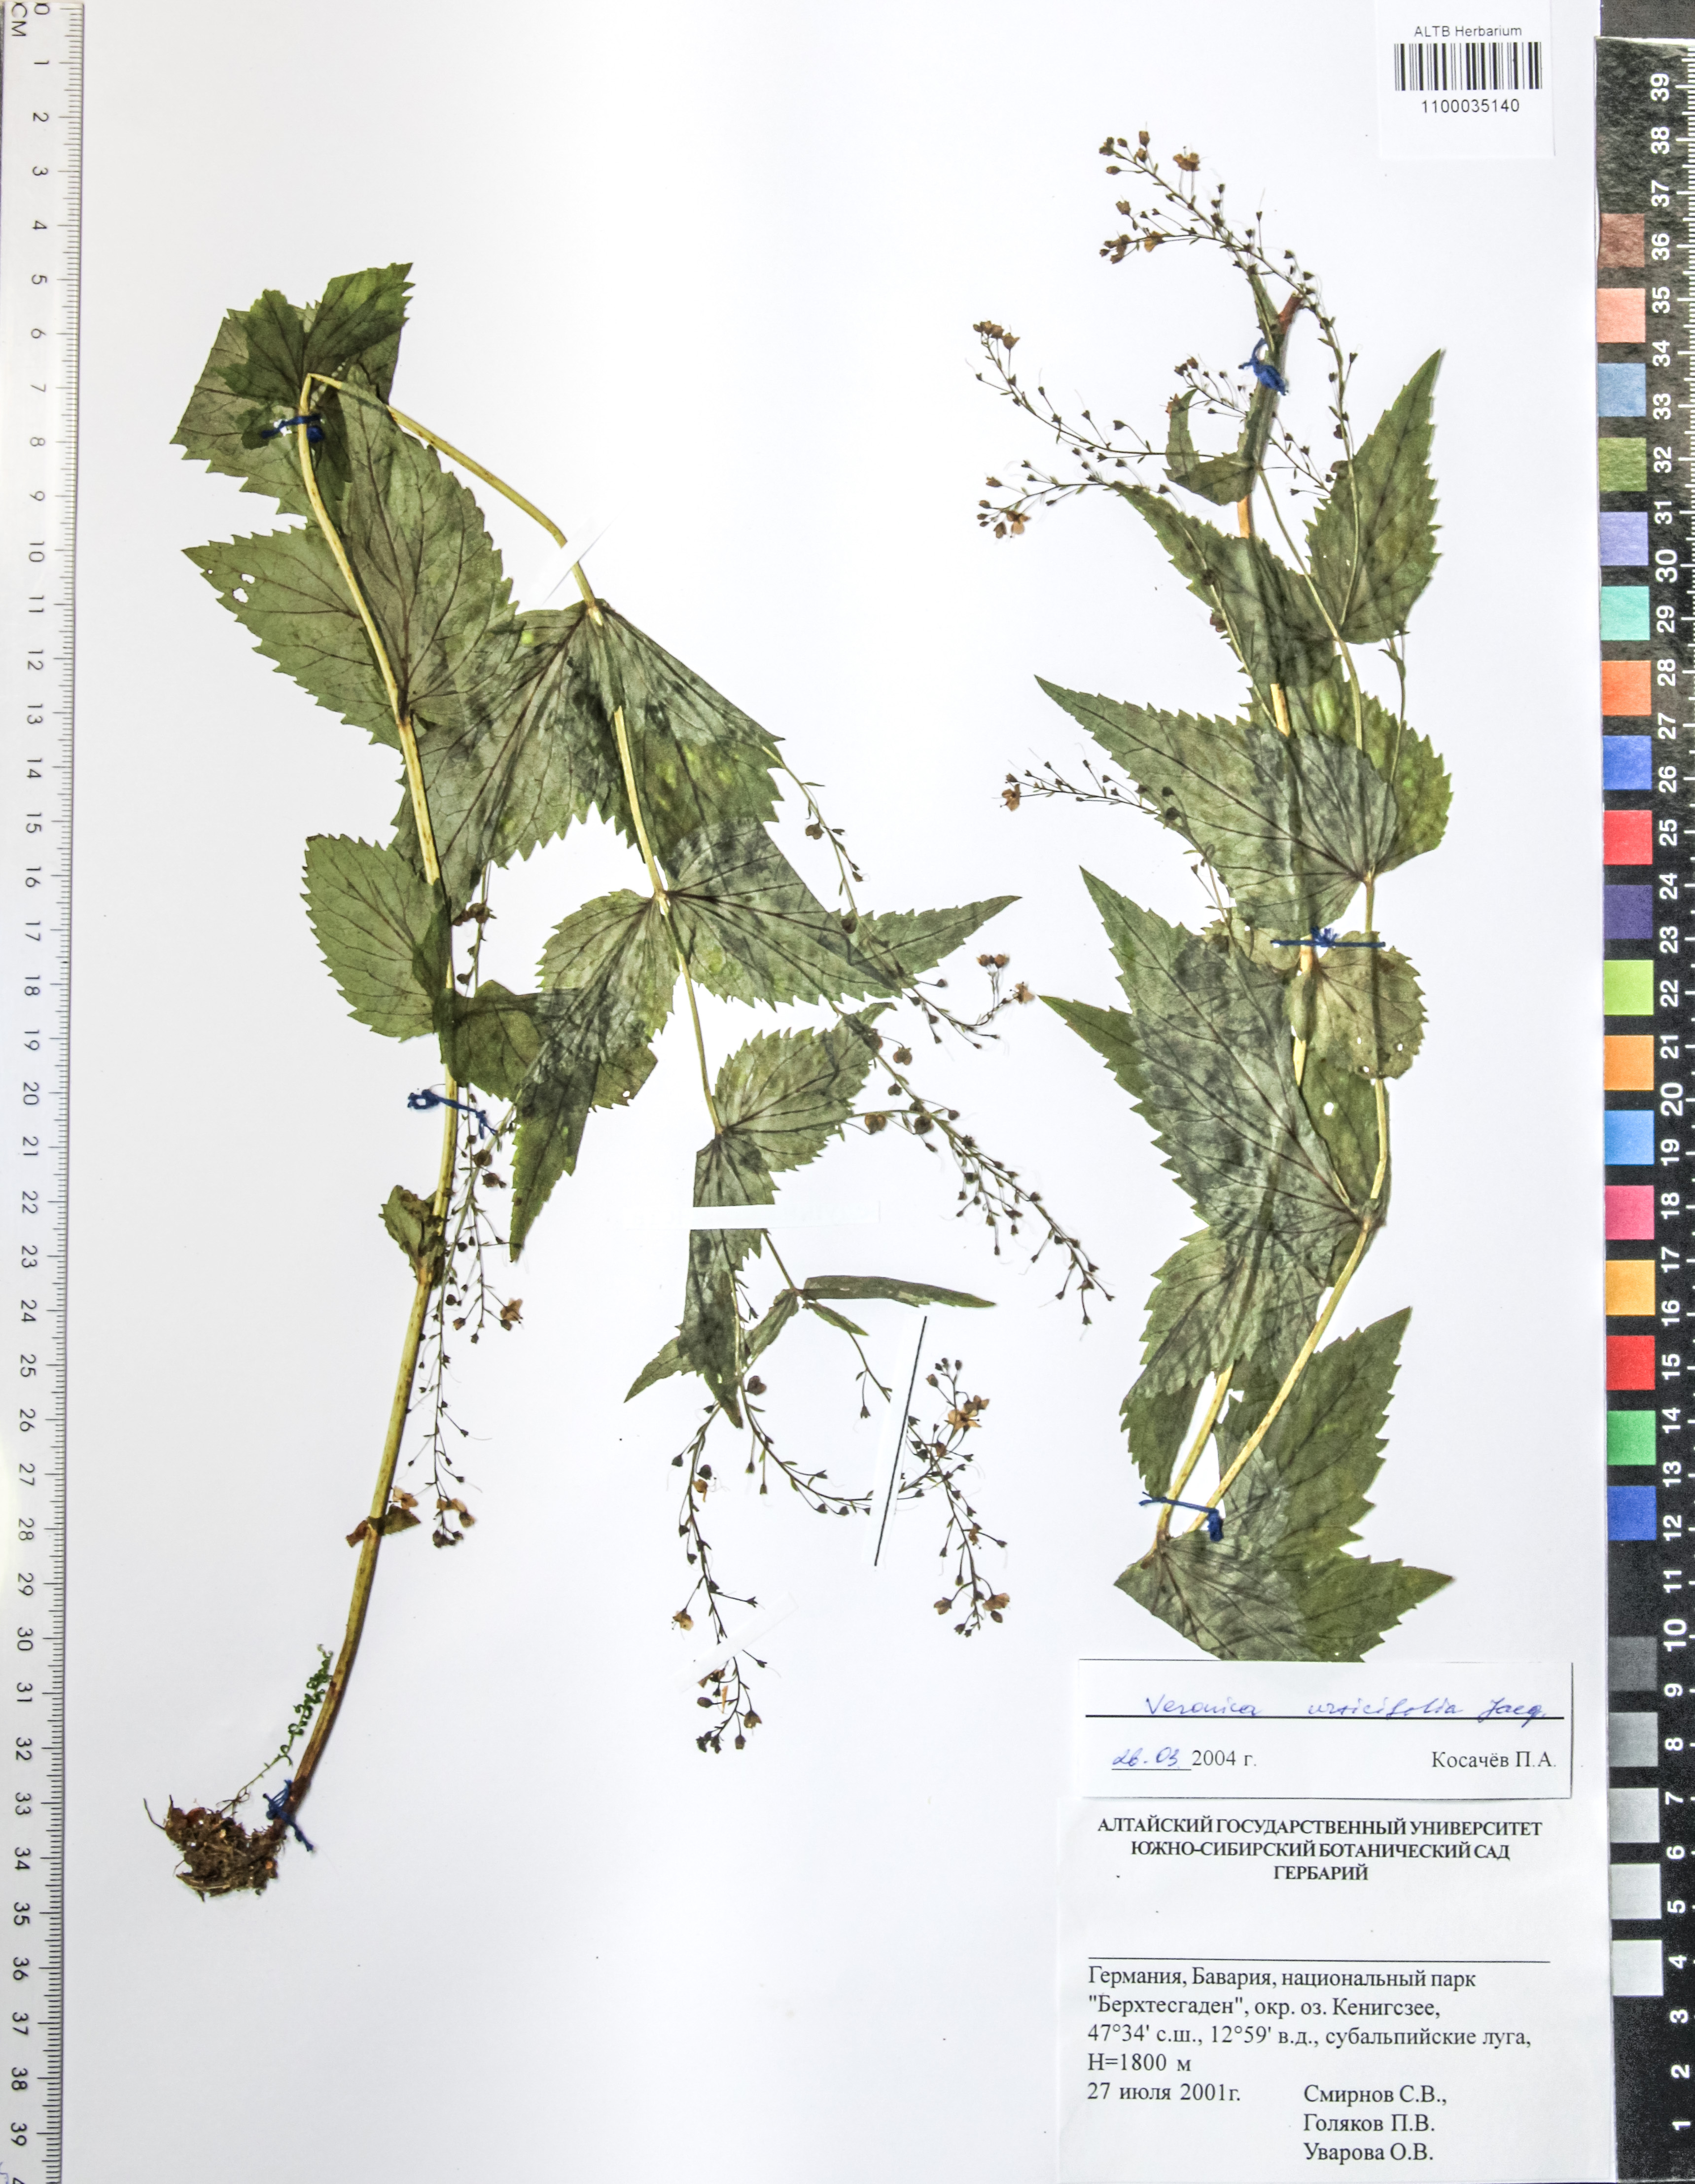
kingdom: Plantae
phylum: Tracheophyta
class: Magnoliopsida
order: Lamiales
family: Plantaginaceae
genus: Veronica
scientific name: Veronica urticifolia
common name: Nettle-leaf speedwell
